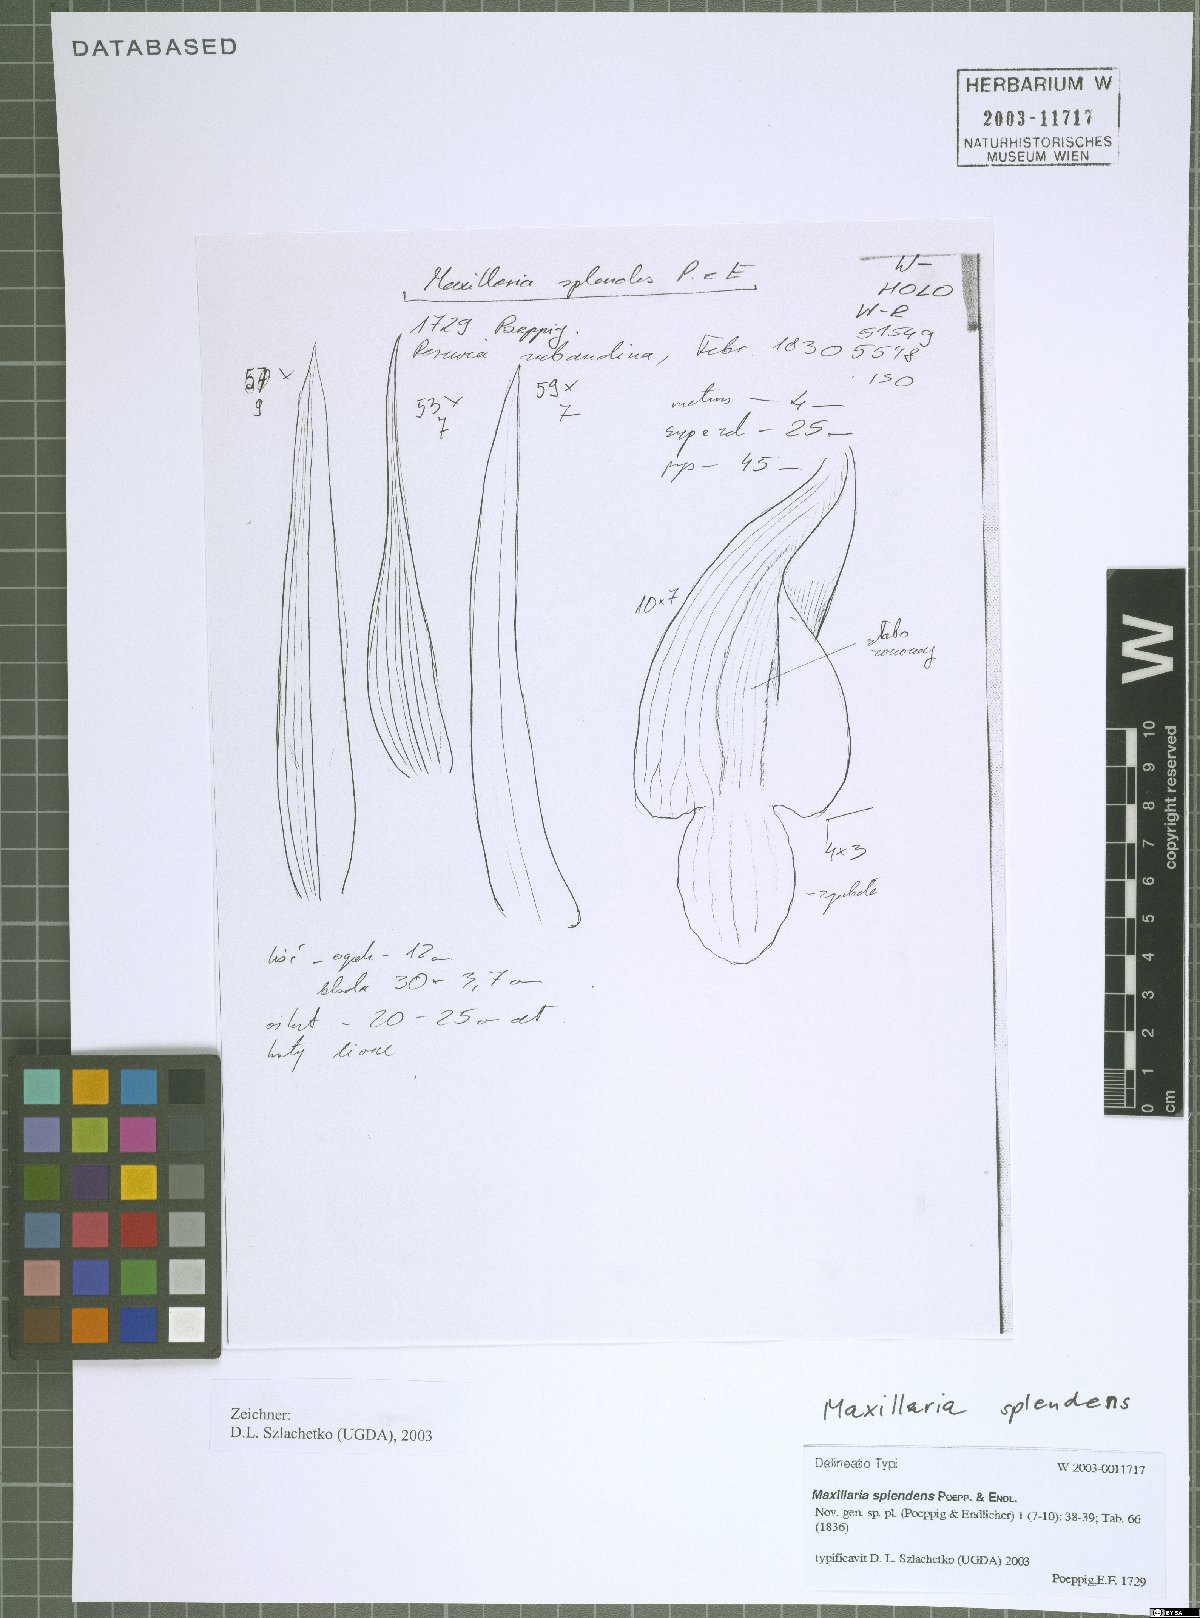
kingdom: Plantae
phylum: Tracheophyta
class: Liliopsida
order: Asparagales
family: Orchidaceae
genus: Maxillaria
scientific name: Maxillaria splendens
